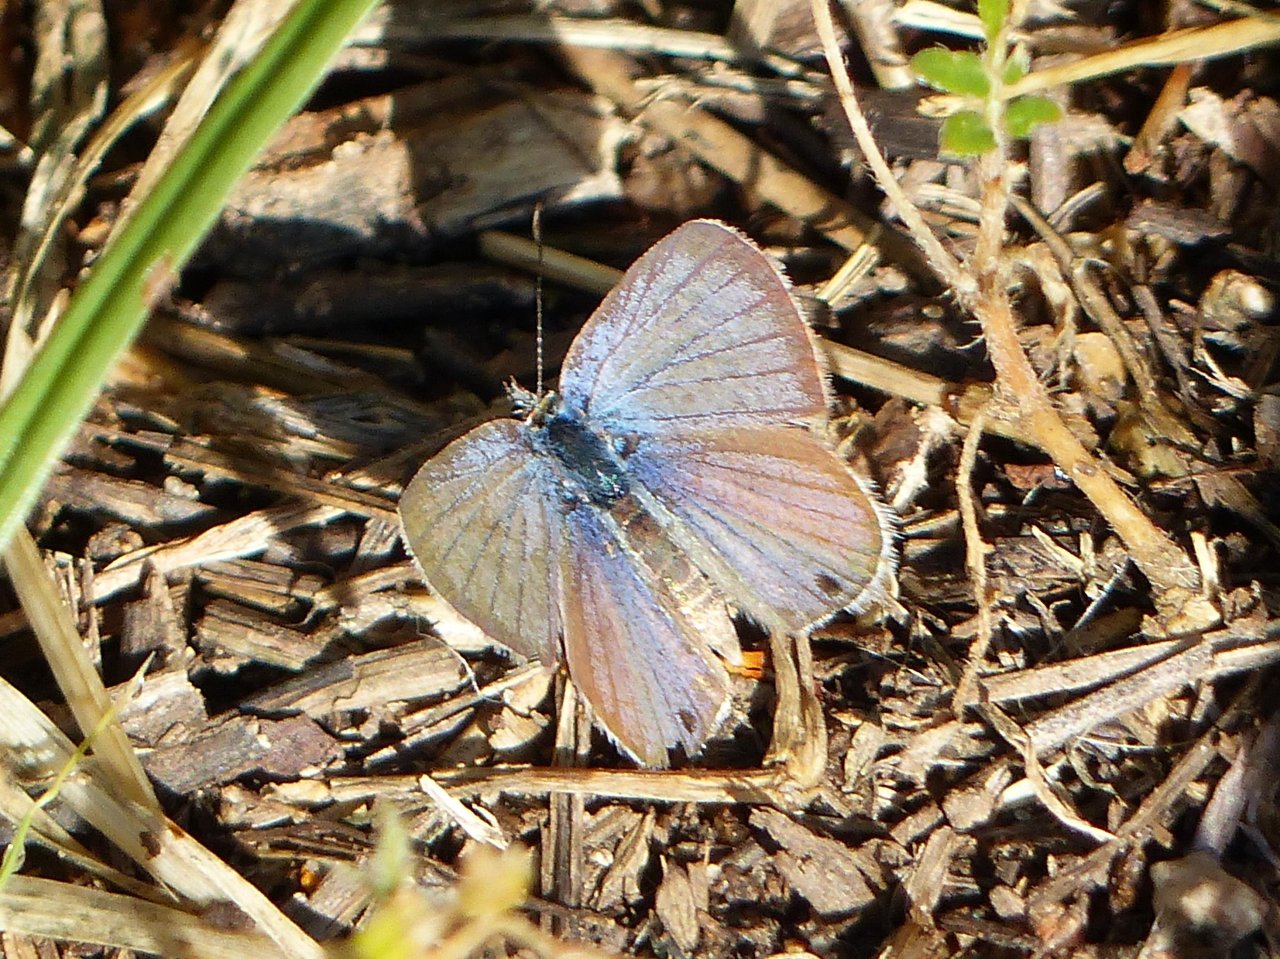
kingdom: Animalia
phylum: Arthropoda
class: Insecta
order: Lepidoptera
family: Lycaenidae
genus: Echinargus
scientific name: Echinargus isola
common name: Reakirt's Blue
